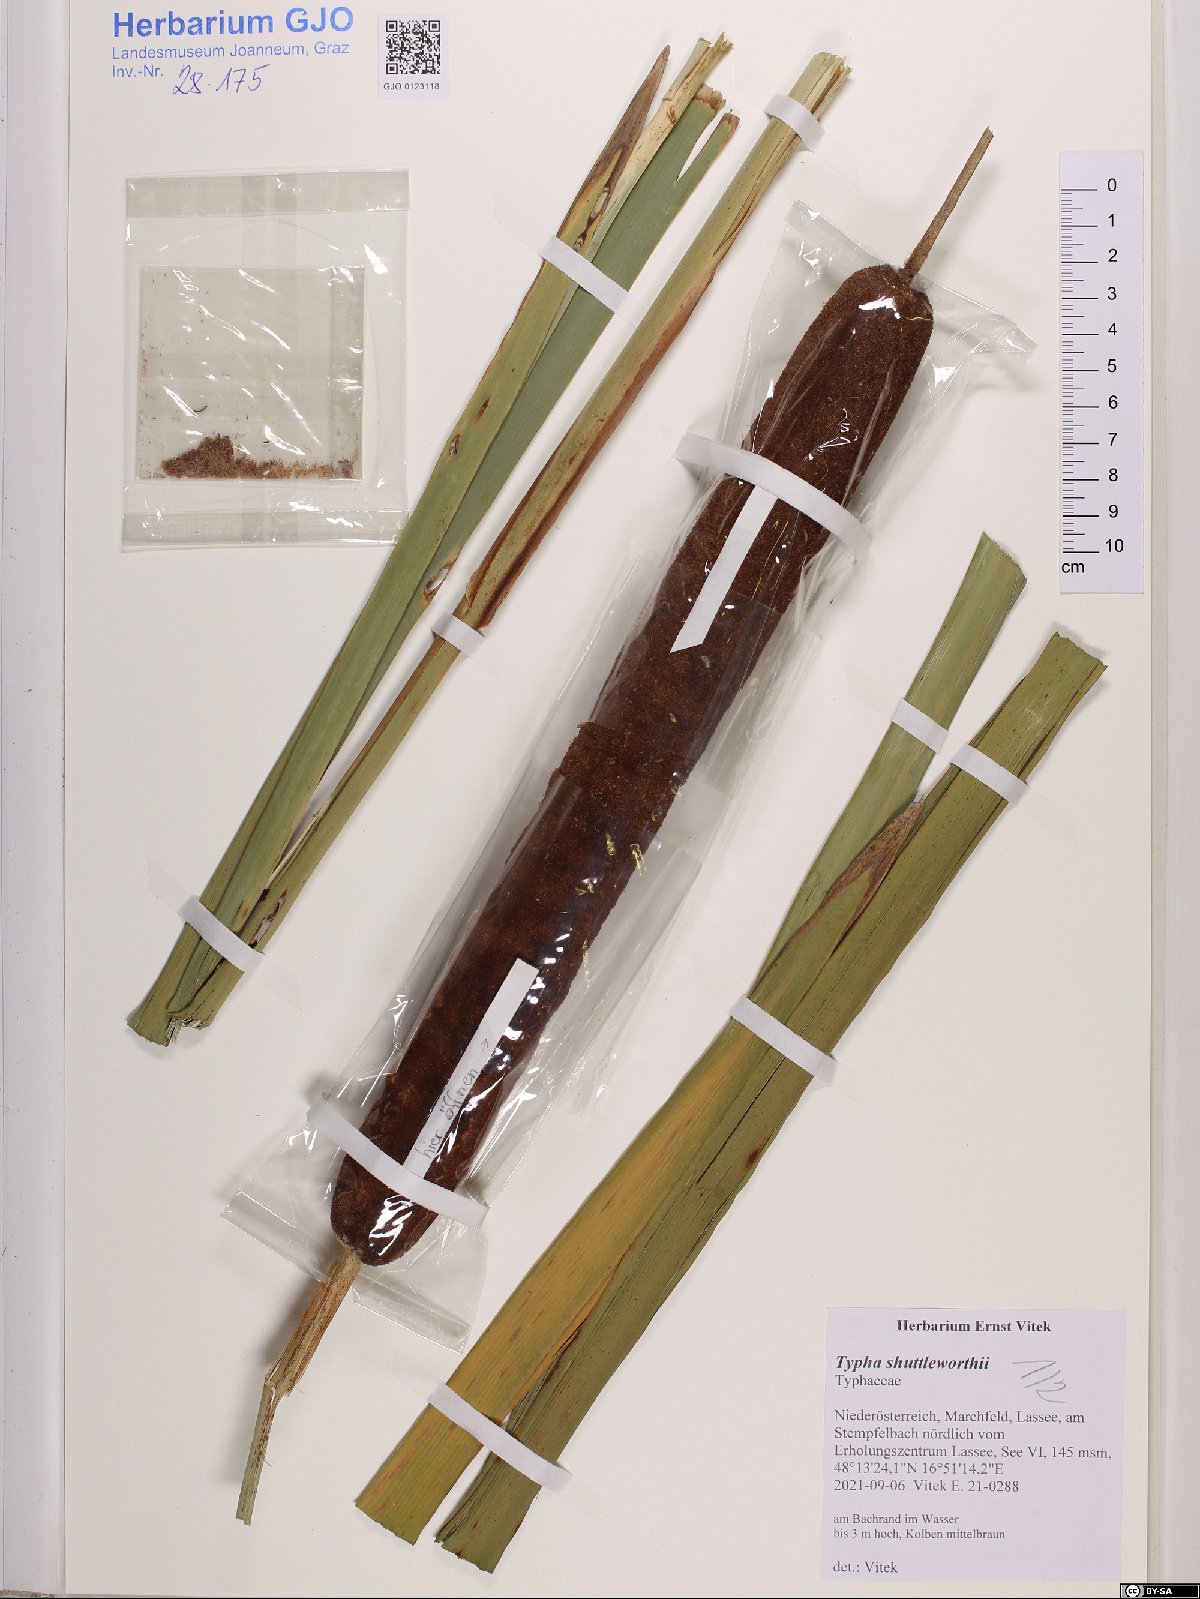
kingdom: Plantae
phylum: Tracheophyta
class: Liliopsida
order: Poales
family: Typhaceae
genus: Typha
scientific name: Typha shuttleworthii
